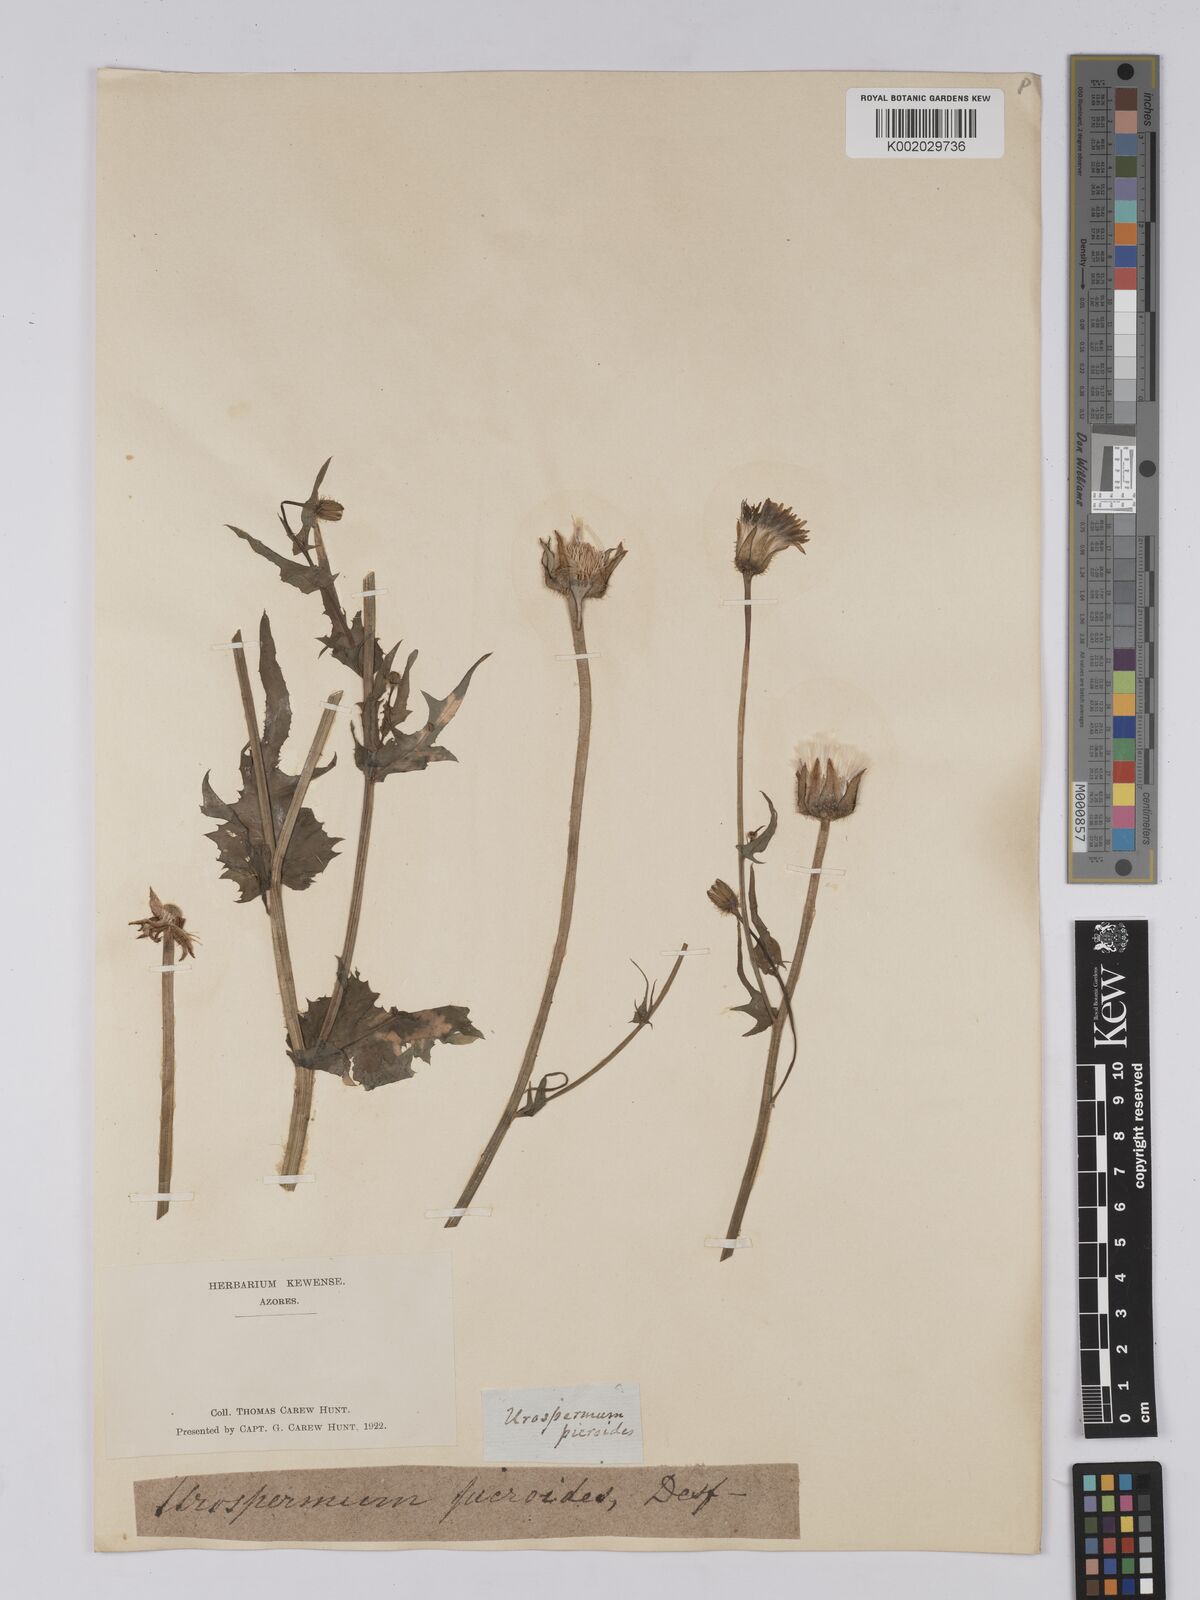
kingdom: Plantae
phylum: Tracheophyta
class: Magnoliopsida
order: Asterales
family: Asteraceae
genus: Urospermum
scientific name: Urospermum picroides
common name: False hawkbit
